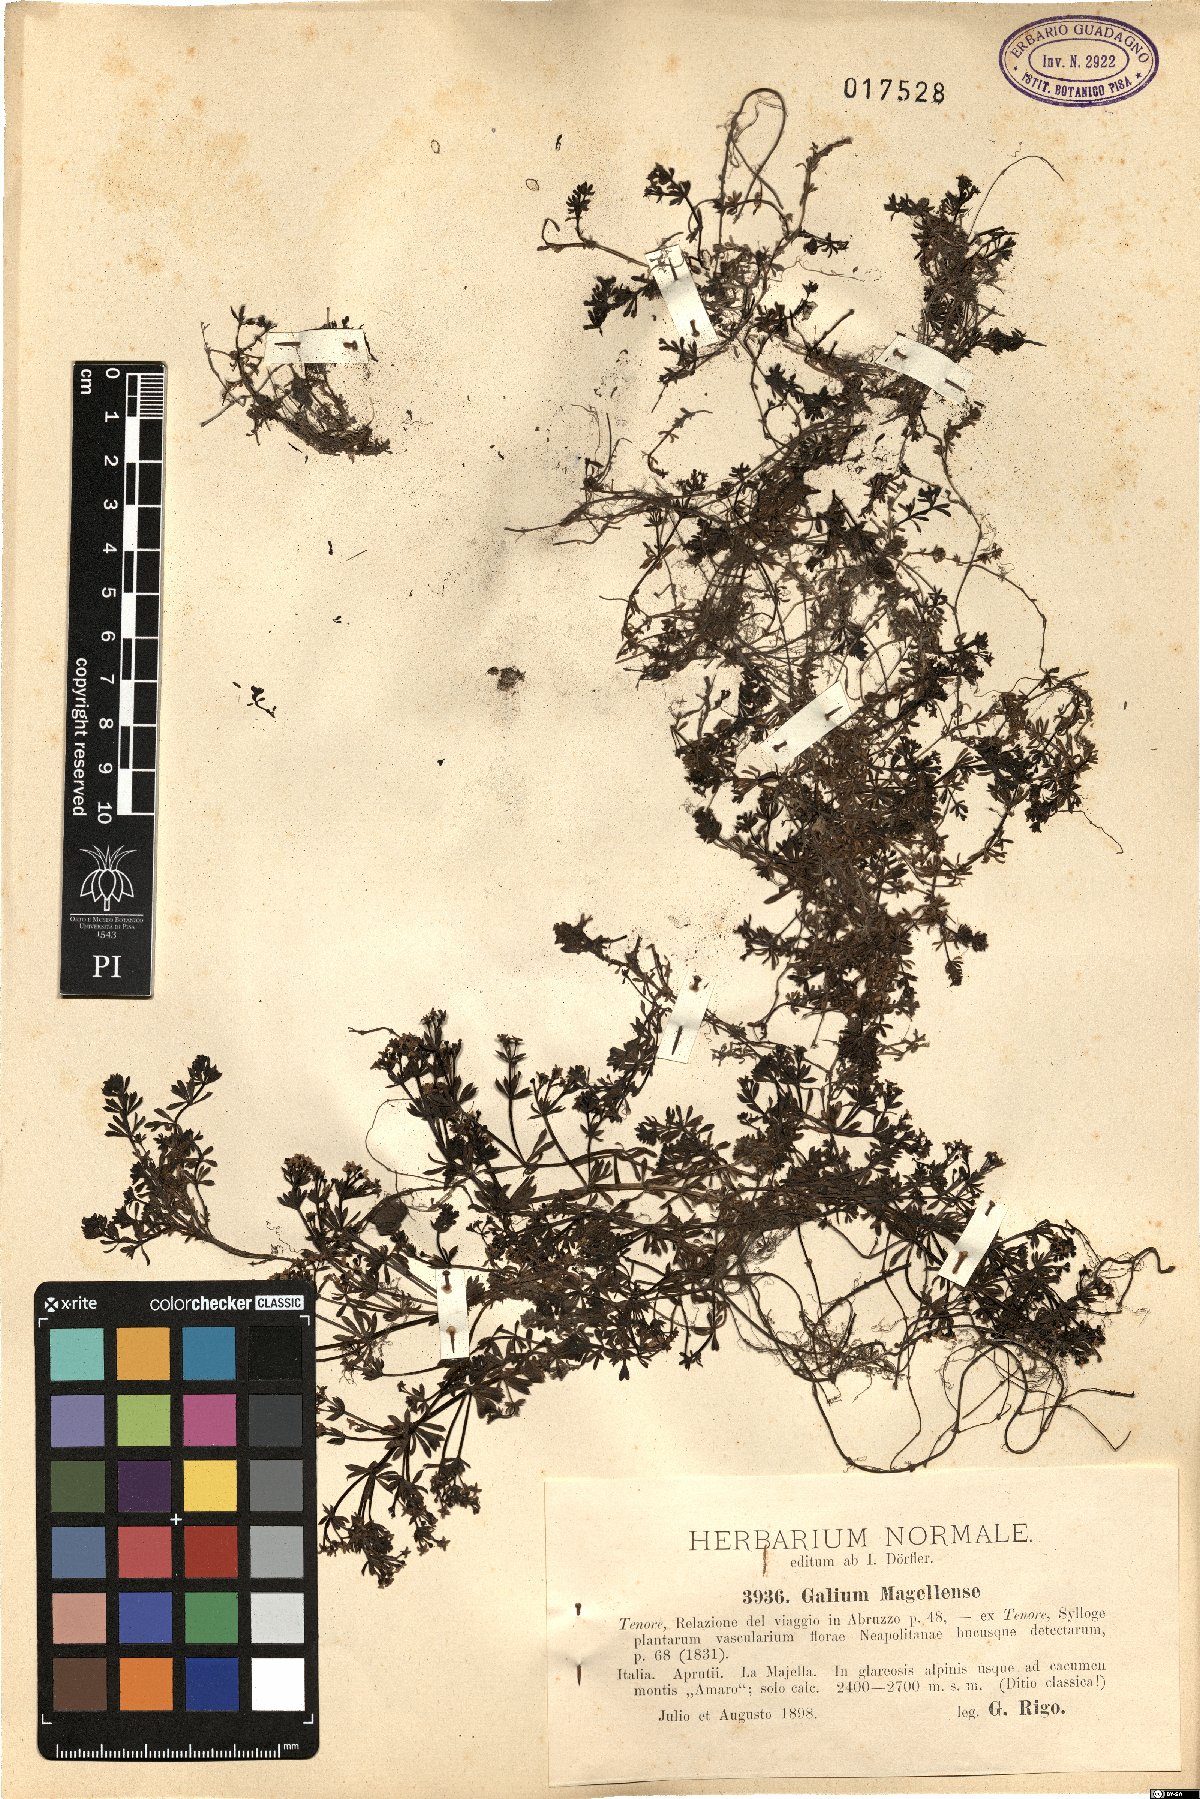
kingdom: Plantae
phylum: Tracheophyta
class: Magnoliopsida
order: Gentianales
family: Rubiaceae
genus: Galium
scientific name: Galium magellense
